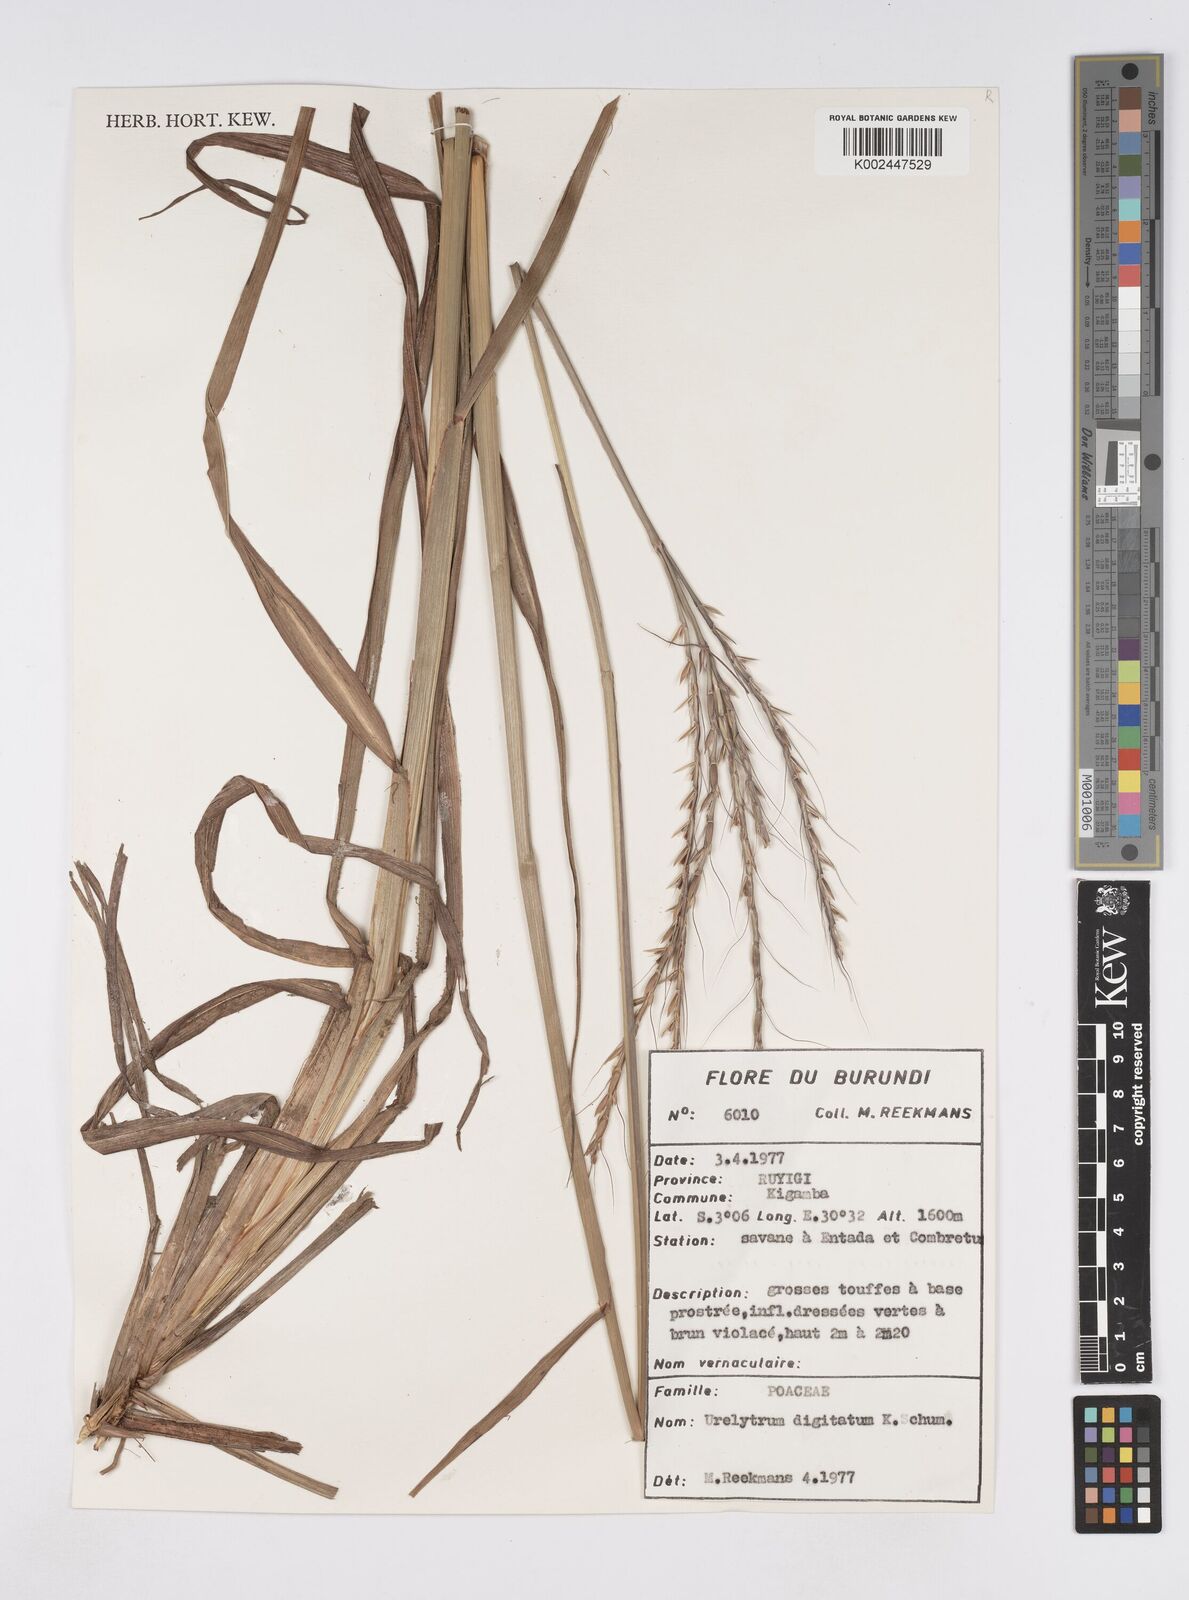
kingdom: Plantae
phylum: Tracheophyta
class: Liliopsida
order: Poales
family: Poaceae
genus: Urelytrum
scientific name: Urelytrum digitatum
